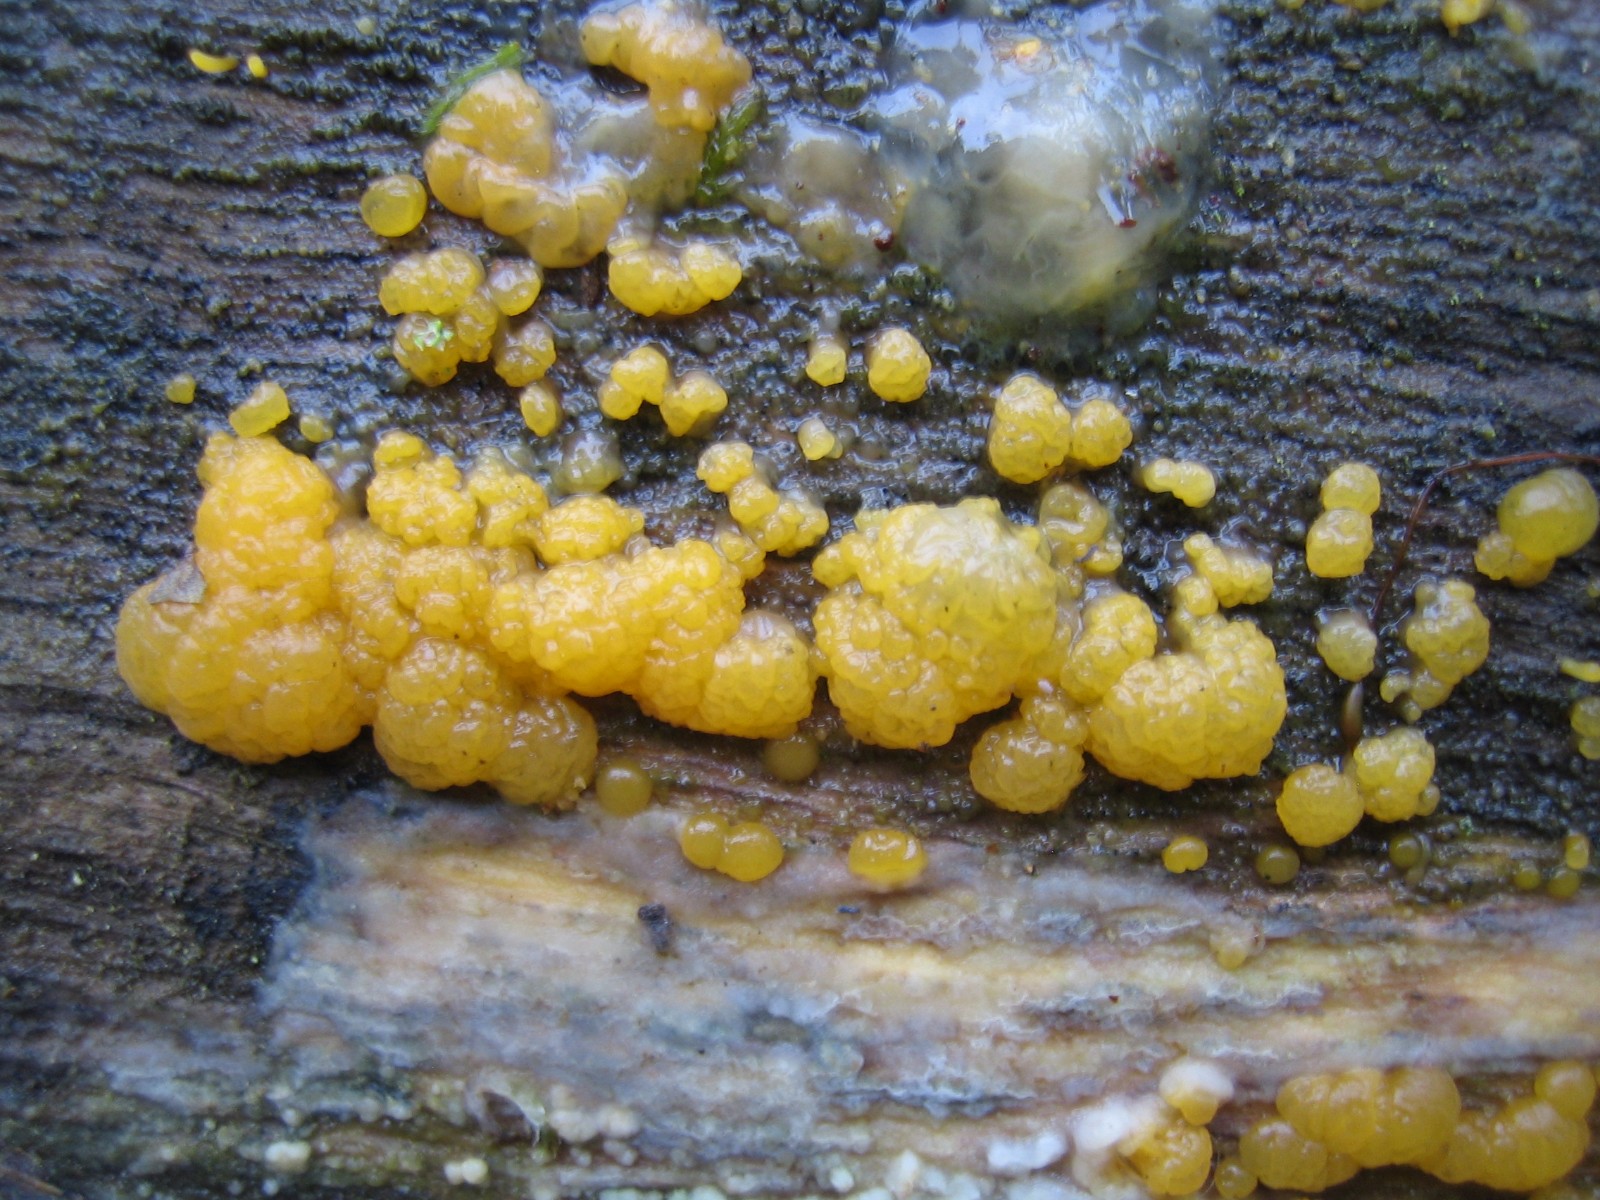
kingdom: Fungi
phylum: Basidiomycota
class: Dacrymycetes
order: Dacrymycetales
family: Dacrymycetaceae
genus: Dacrymyces
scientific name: Dacrymyces
